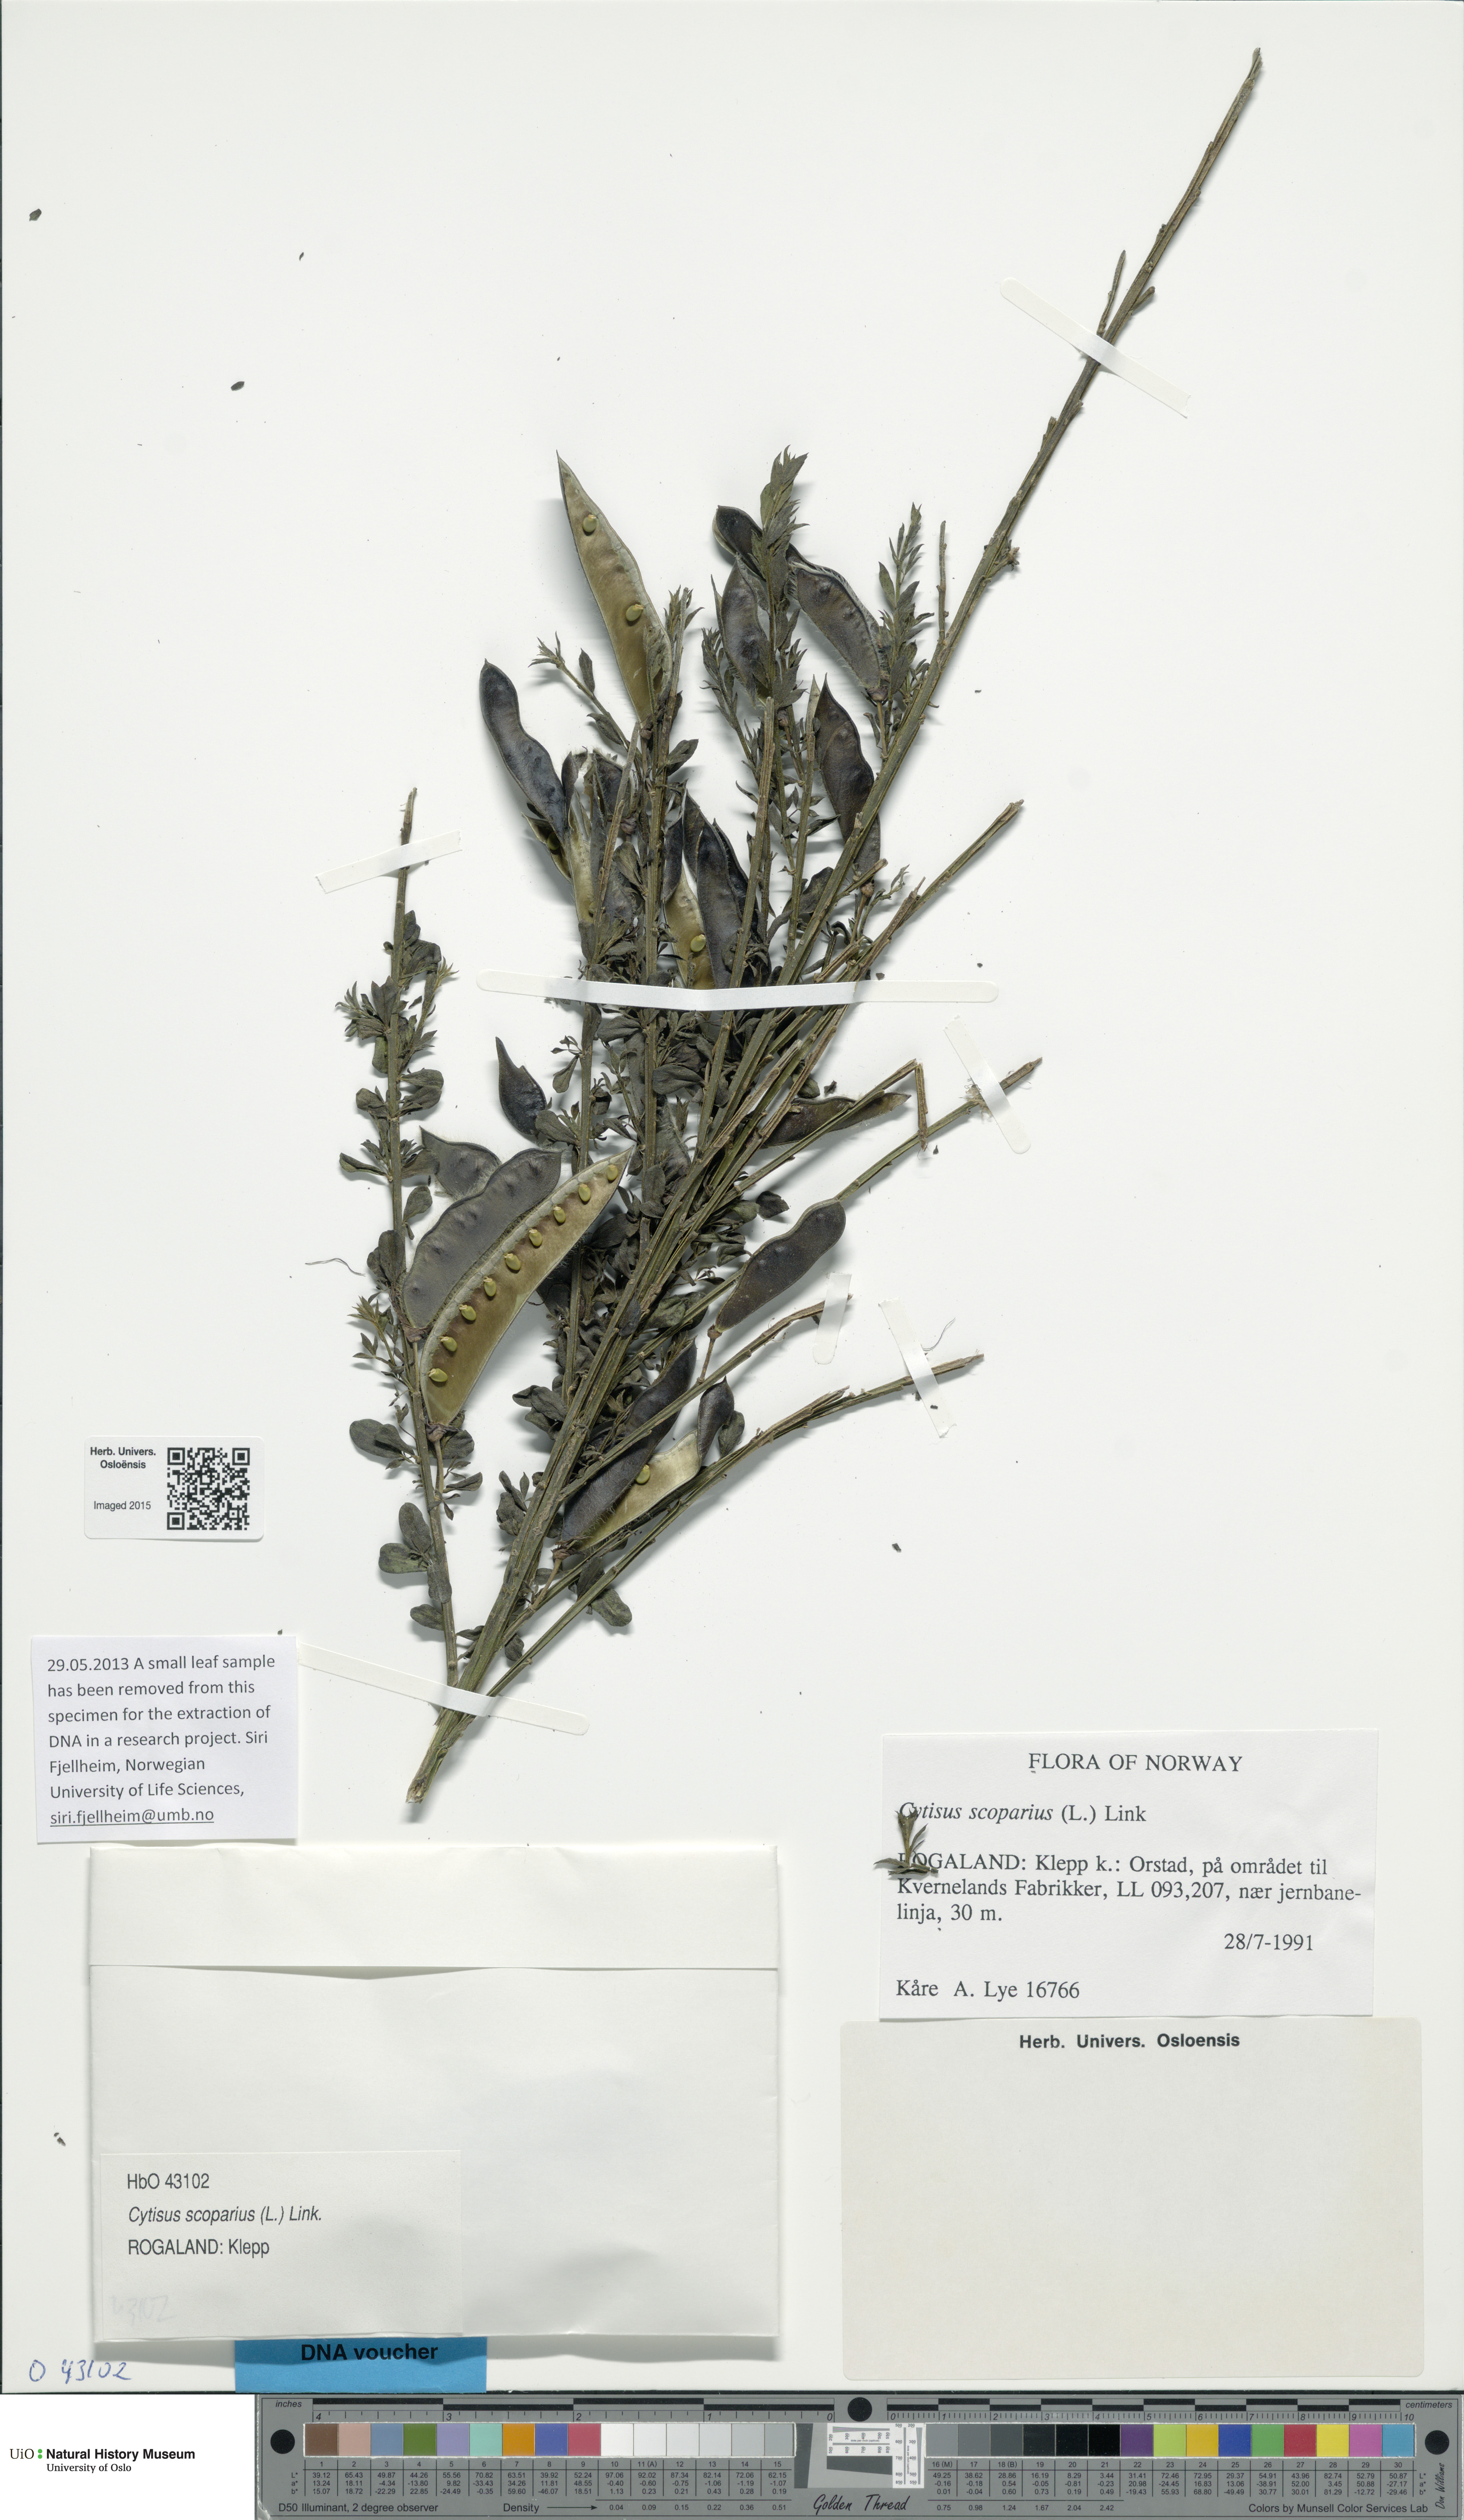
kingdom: Plantae
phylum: Tracheophyta
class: Magnoliopsida
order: Fabales
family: Fabaceae
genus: Cytisus
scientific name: Cytisus scoparius
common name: Scotch broom
